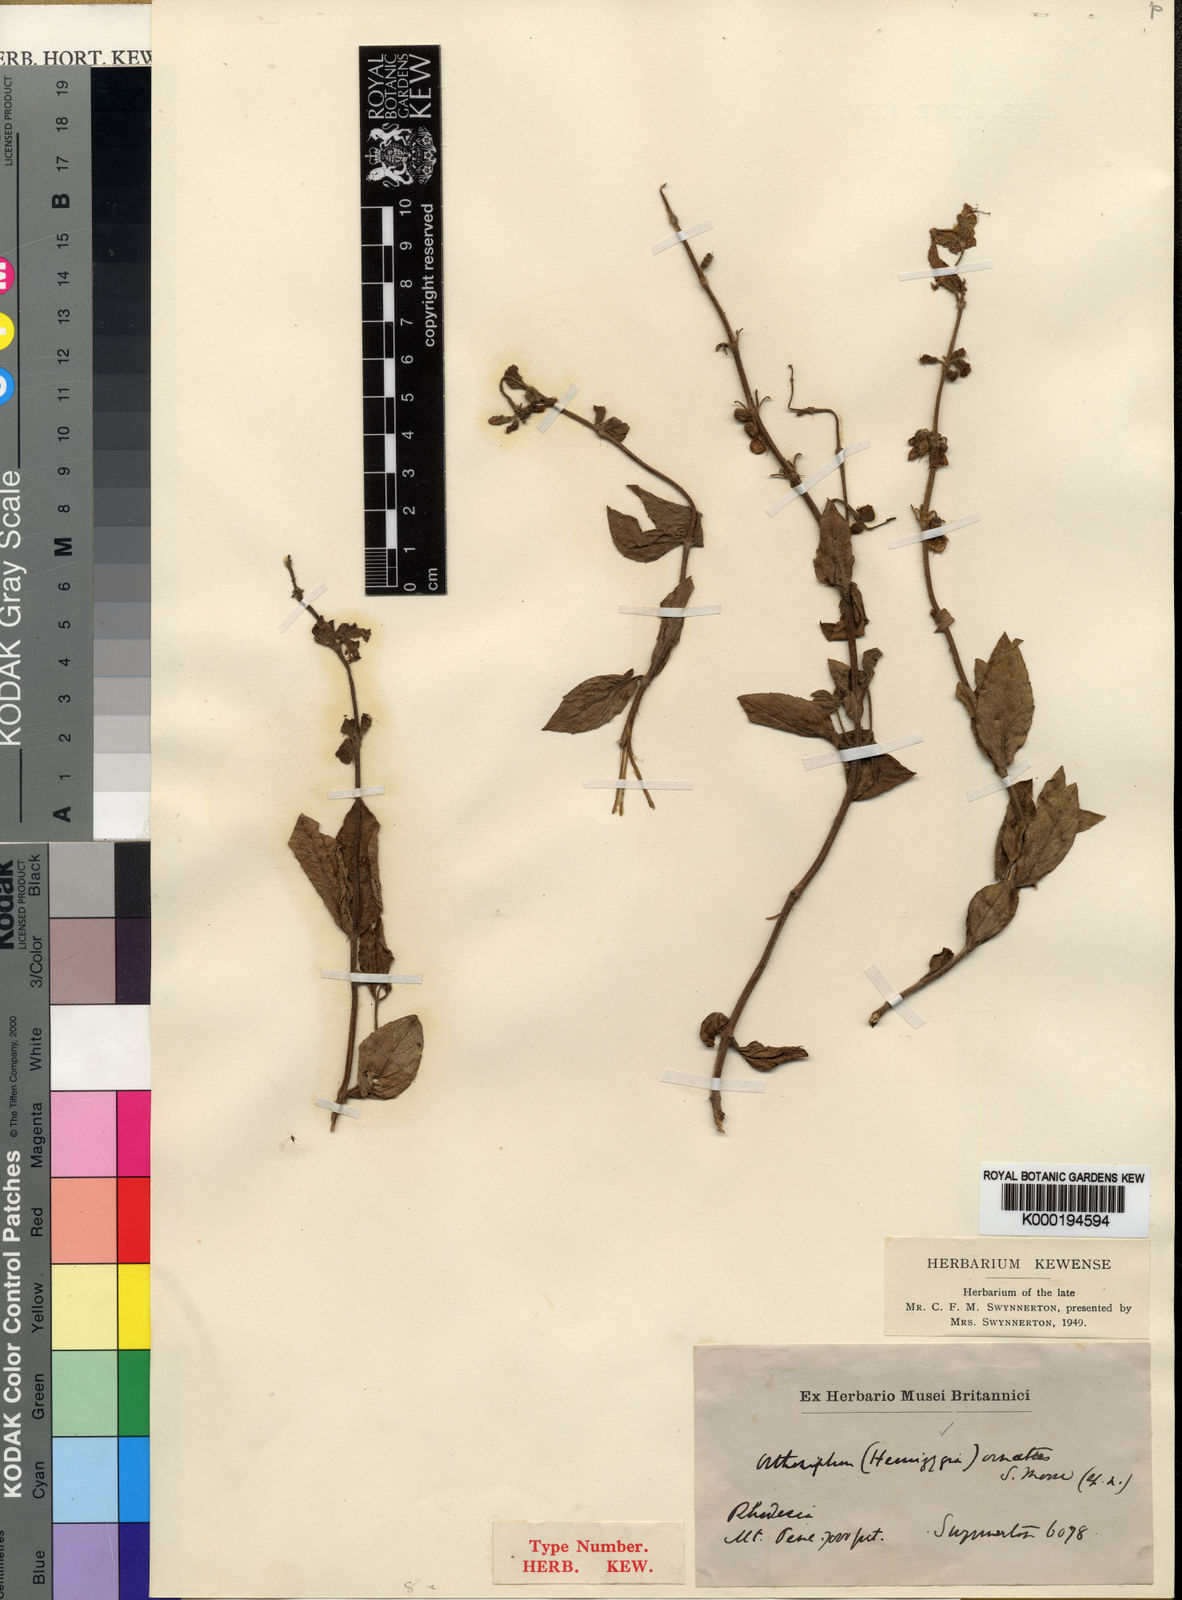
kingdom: Plantae
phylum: Tracheophyta
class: Magnoliopsida
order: Lamiales
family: Lamiaceae
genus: Syncolostemon
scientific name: Syncolostemon ornatus
